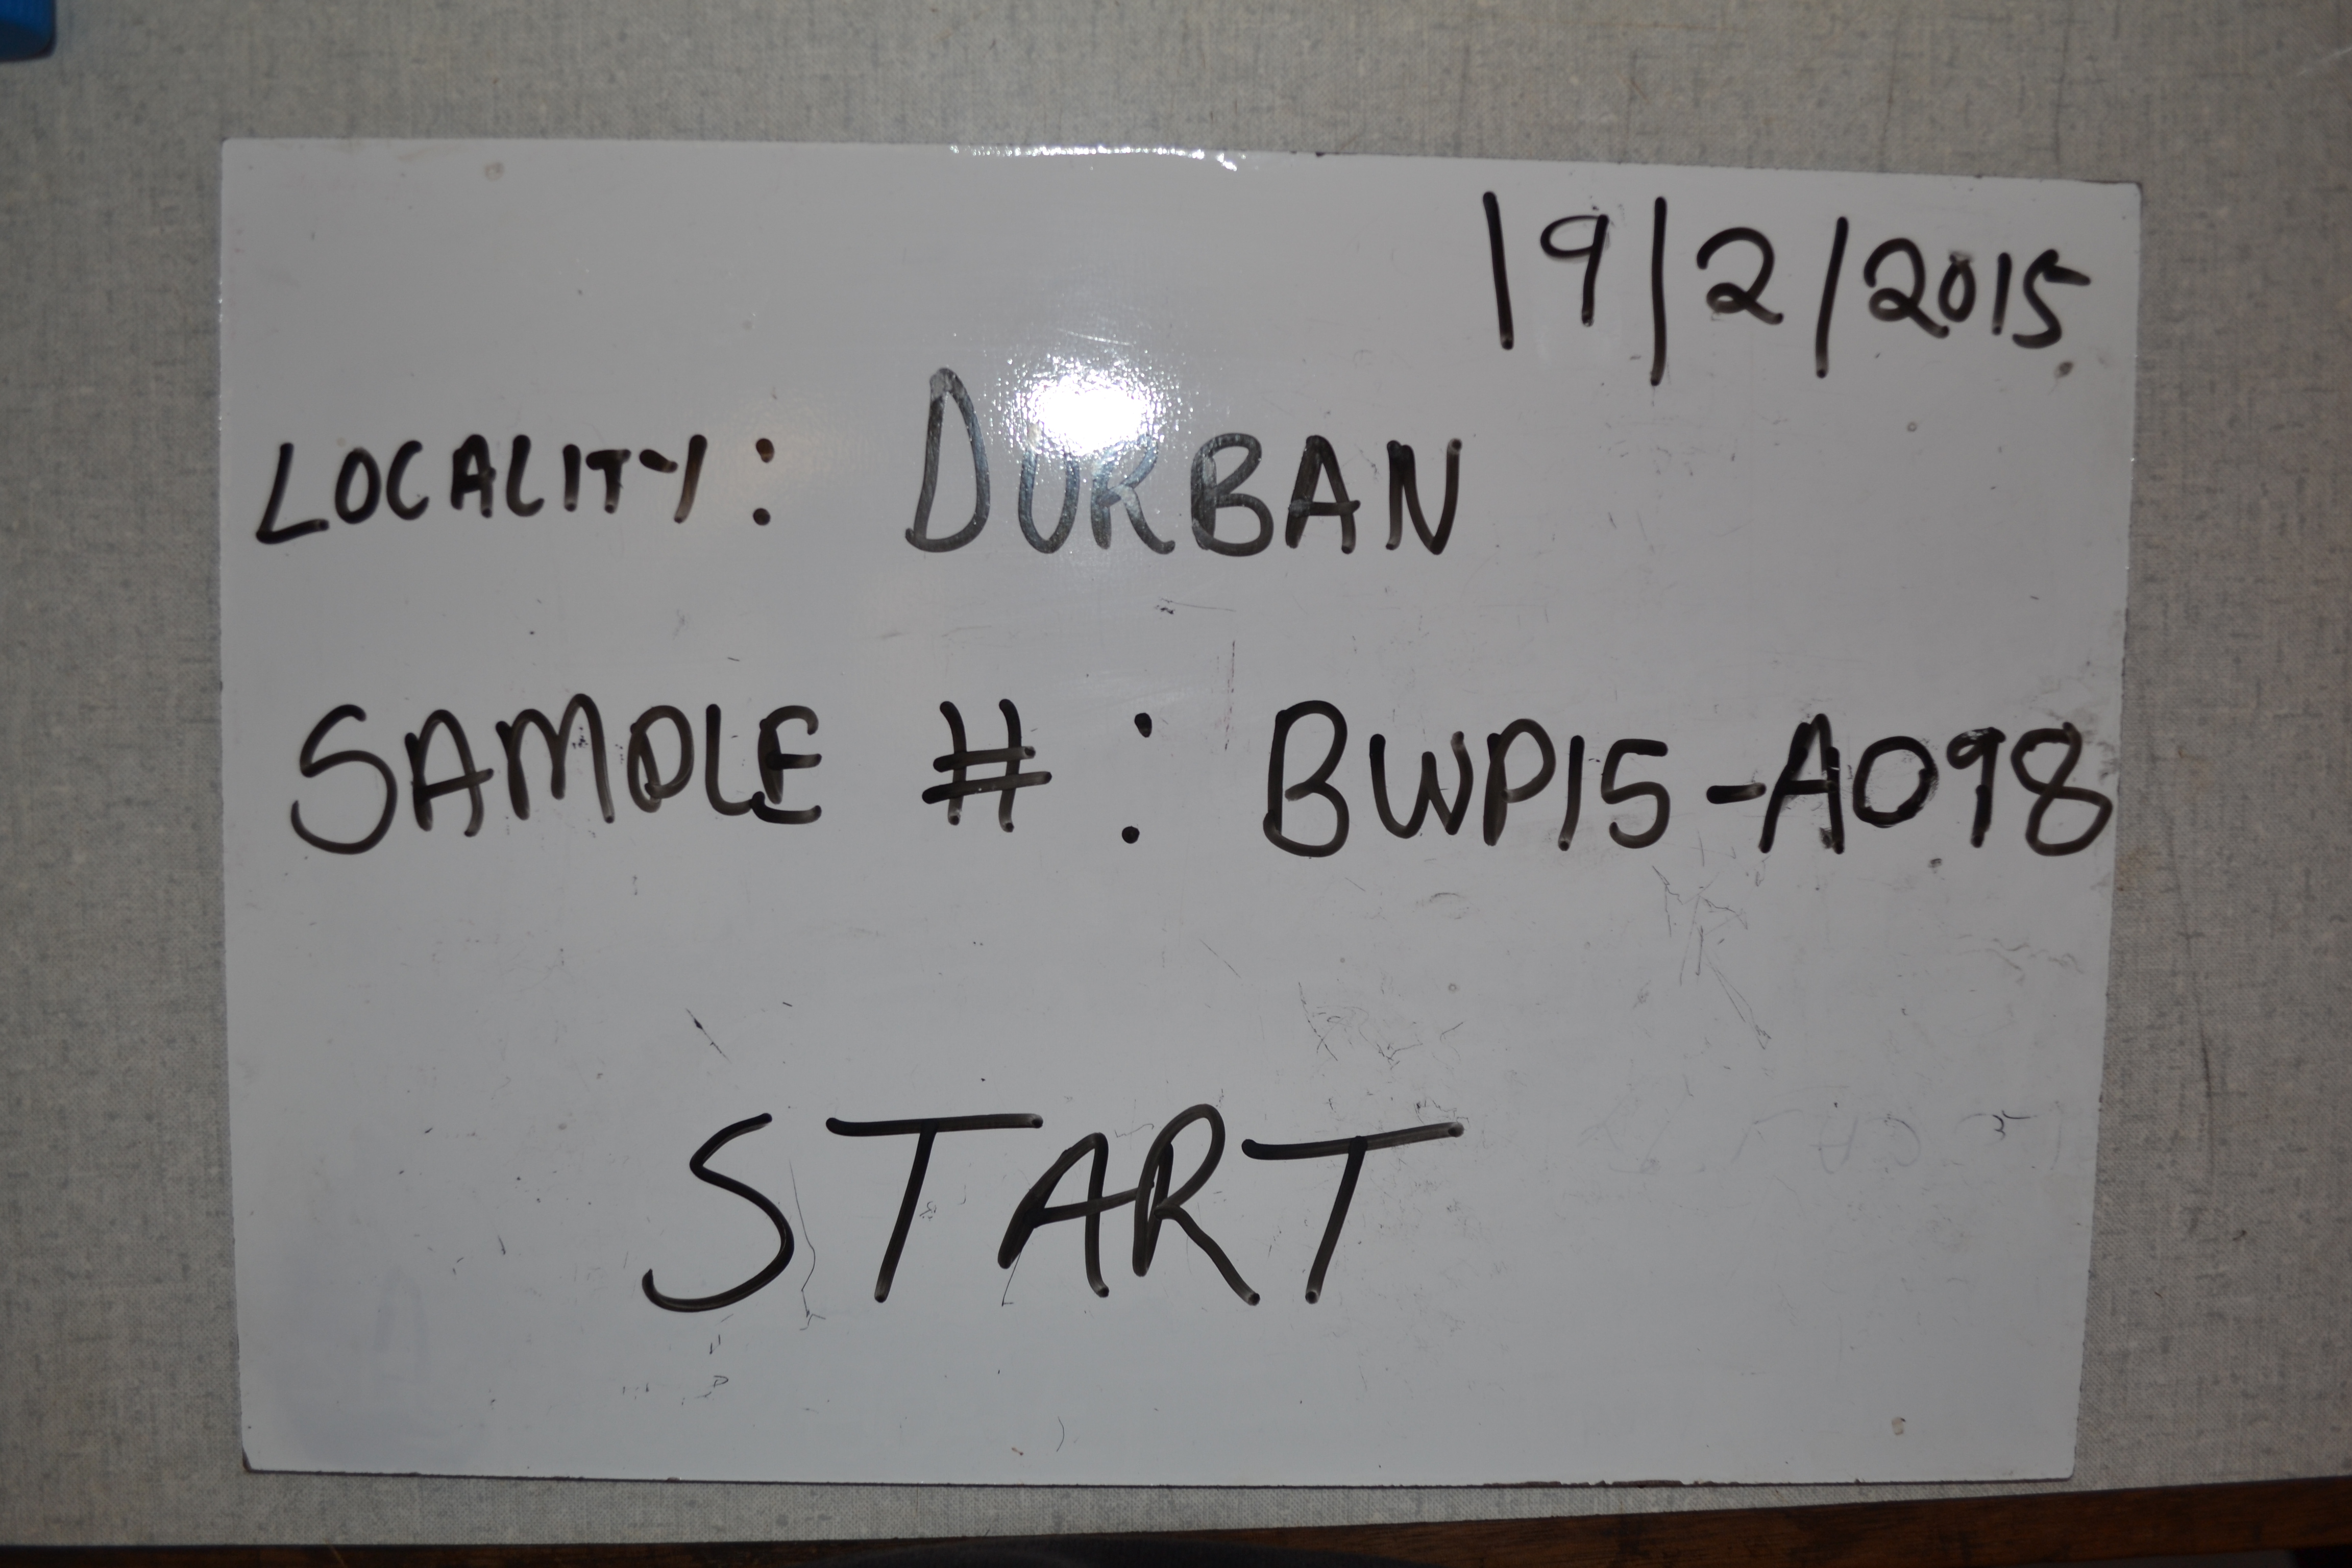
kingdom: Animalia
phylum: Chordata
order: Perciformes
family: Serranidae
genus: Epinephelus
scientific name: Epinephelus marginatus
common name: Dusky grouper
